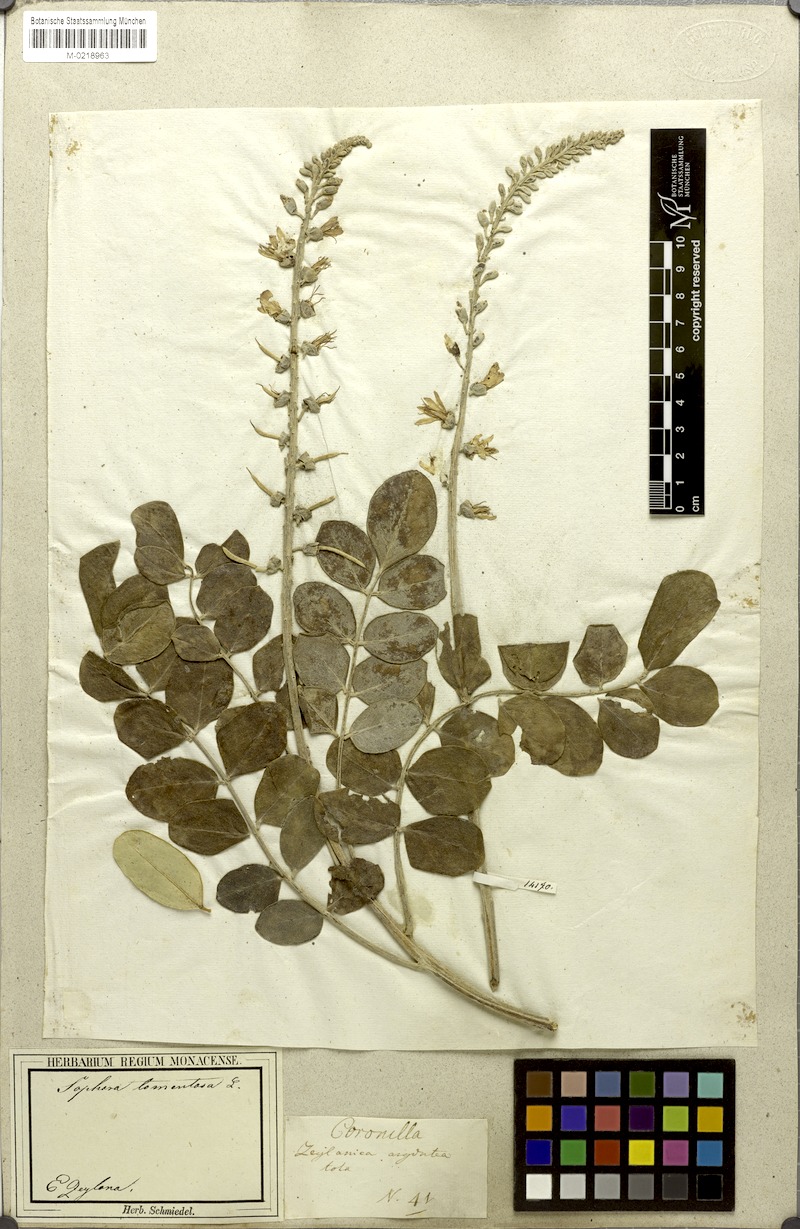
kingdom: Plantae
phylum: Tracheophyta
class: Magnoliopsida
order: Fabales
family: Fabaceae
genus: Sophora
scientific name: Sophora tomentosa
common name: Yellow necklacepod
